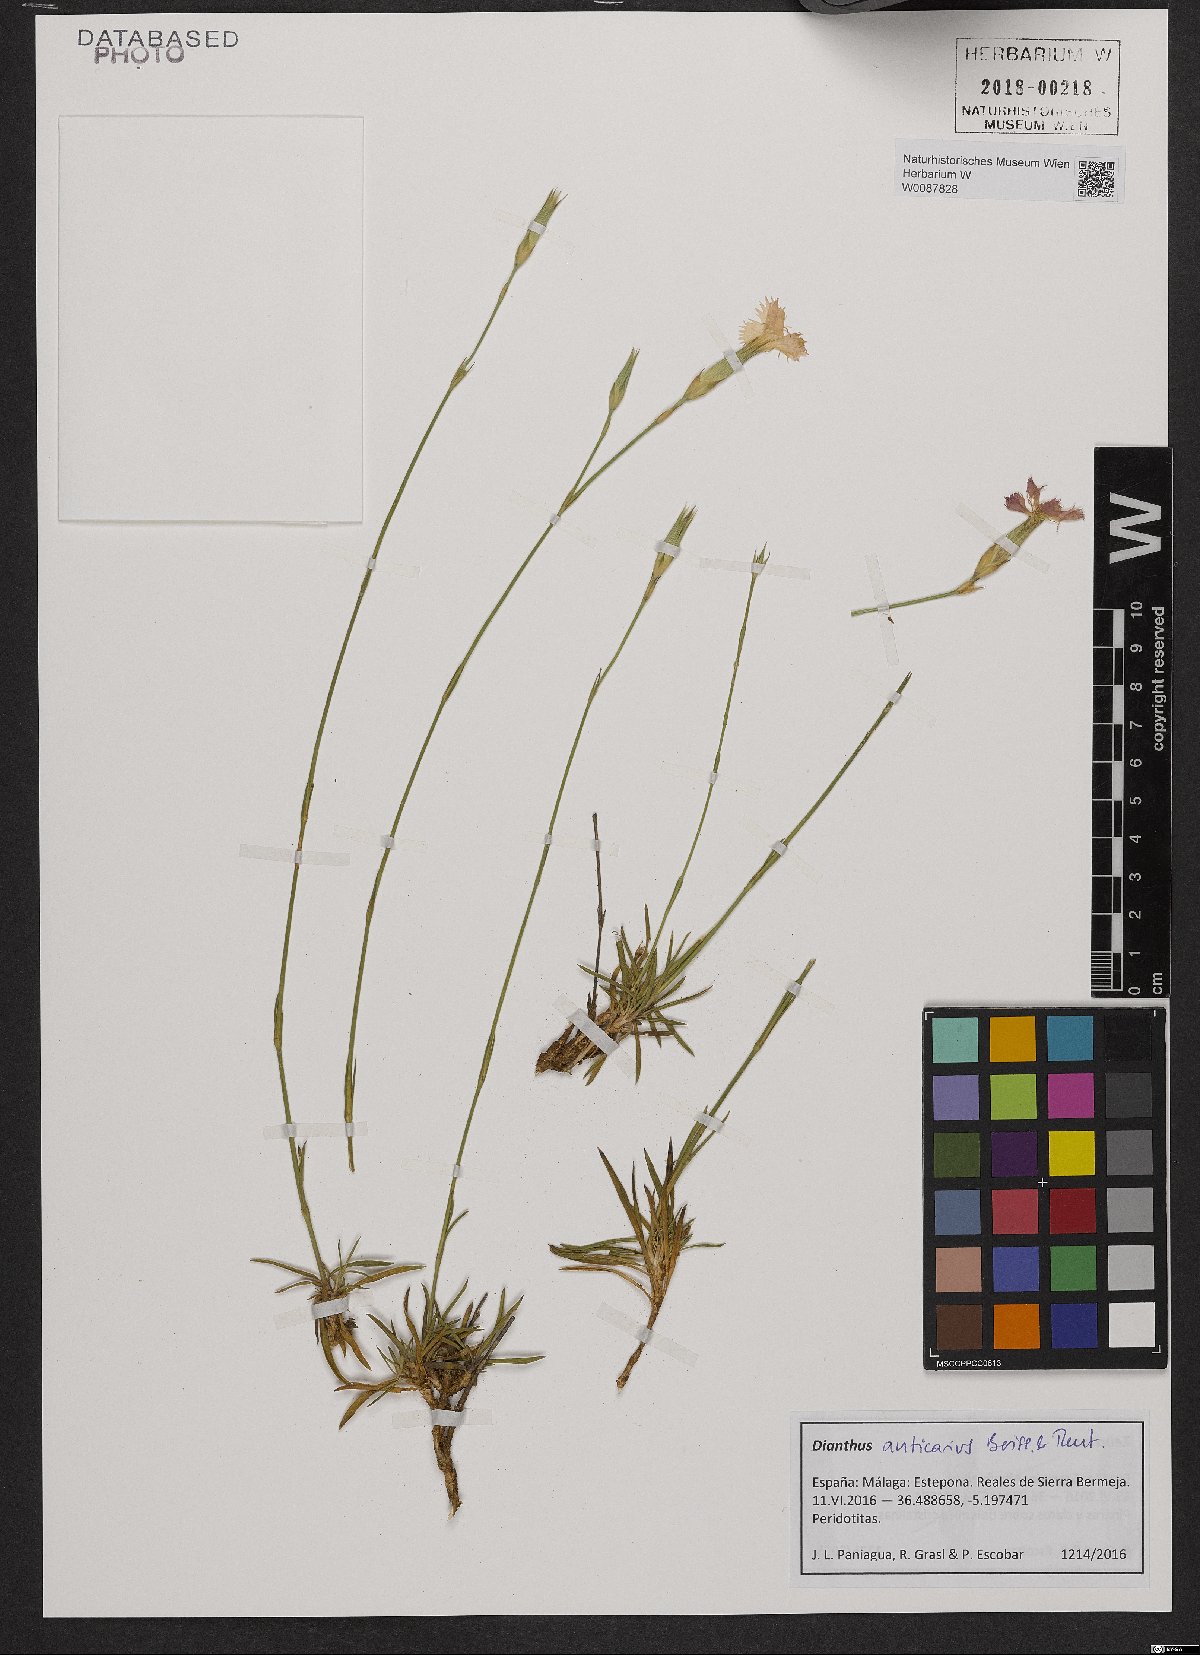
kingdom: Plantae
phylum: Tracheophyta
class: Magnoliopsida
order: Caryophyllales
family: Caryophyllaceae
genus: Dianthus
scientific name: Dianthus anticarius
